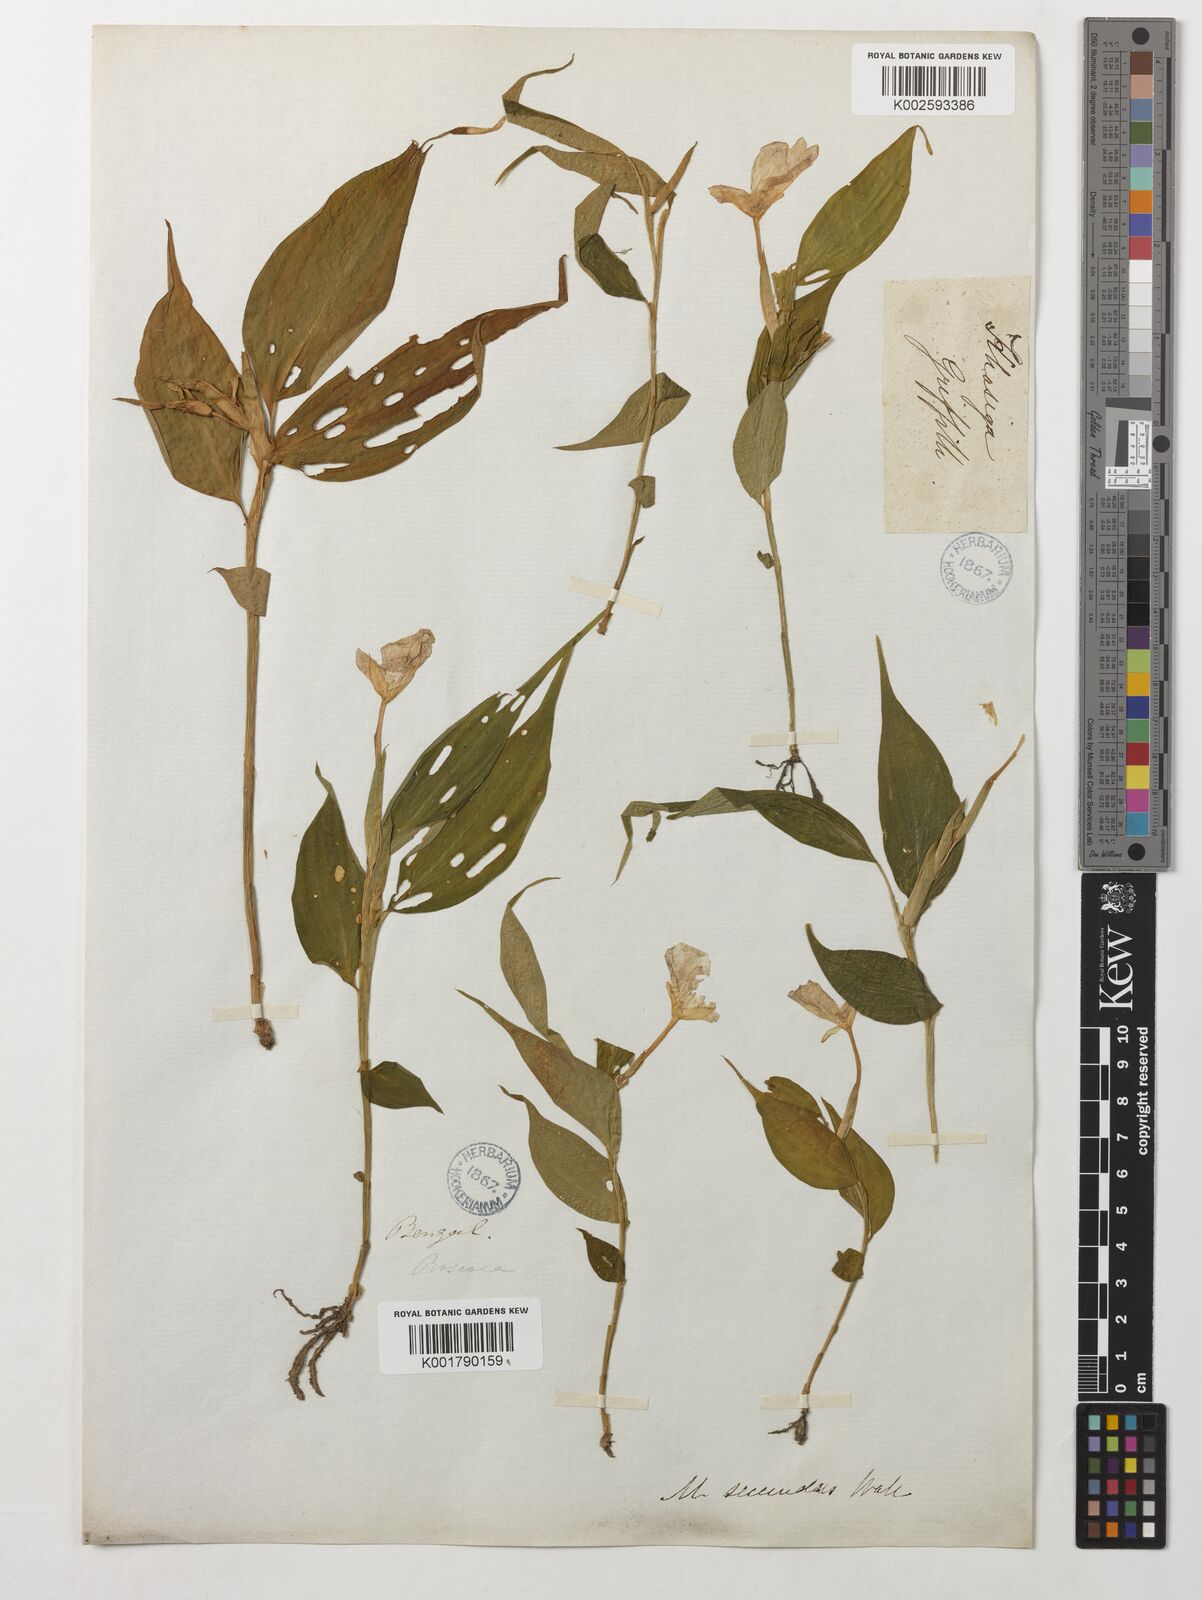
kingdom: Plantae
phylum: Tracheophyta
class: Liliopsida
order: Zingiberales
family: Zingiberaceae
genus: Caulokaempferia
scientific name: Caulokaempferia secunda
